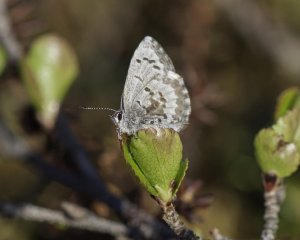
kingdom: Animalia
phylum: Arthropoda
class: Insecta
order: Lepidoptera
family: Lycaenidae
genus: Celastrina
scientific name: Celastrina lucia
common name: Northern Spring Azure
